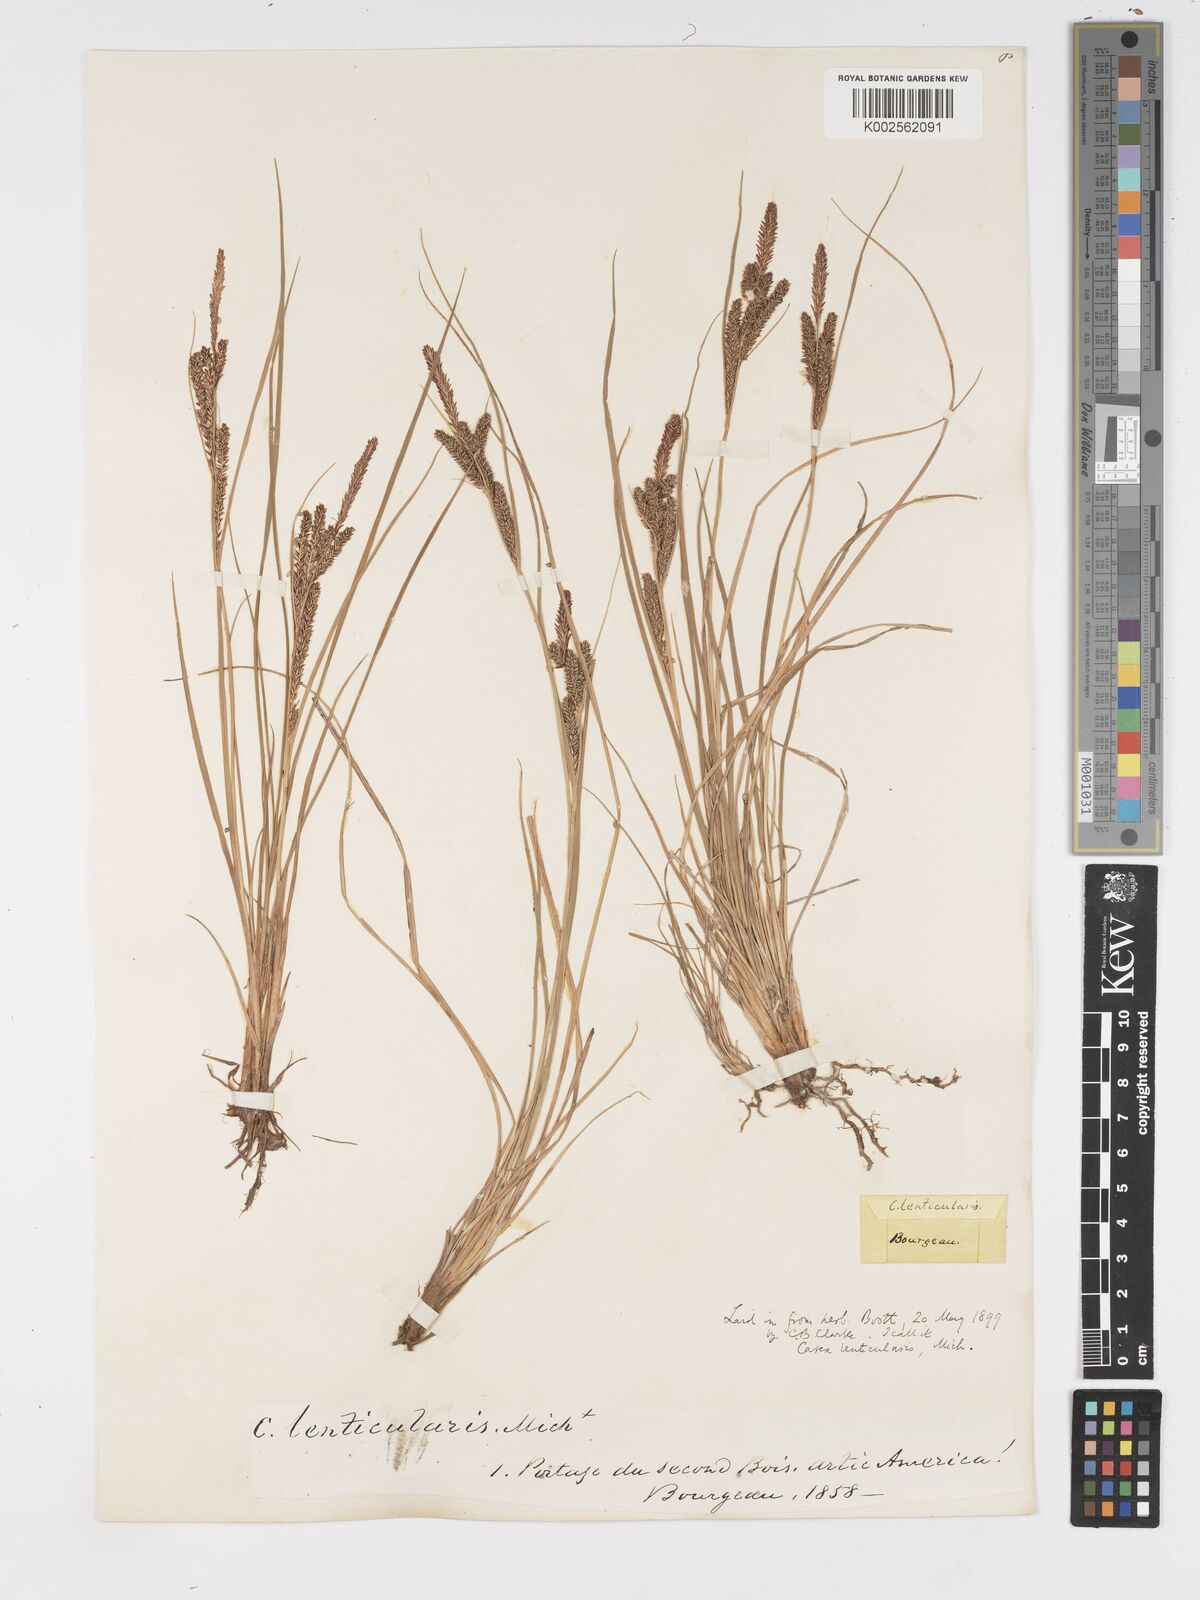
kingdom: Plantae
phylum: Tracheophyta
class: Liliopsida
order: Poales
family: Cyperaceae
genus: Carex
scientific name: Carex lenticularis
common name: Lakeshore sedge
